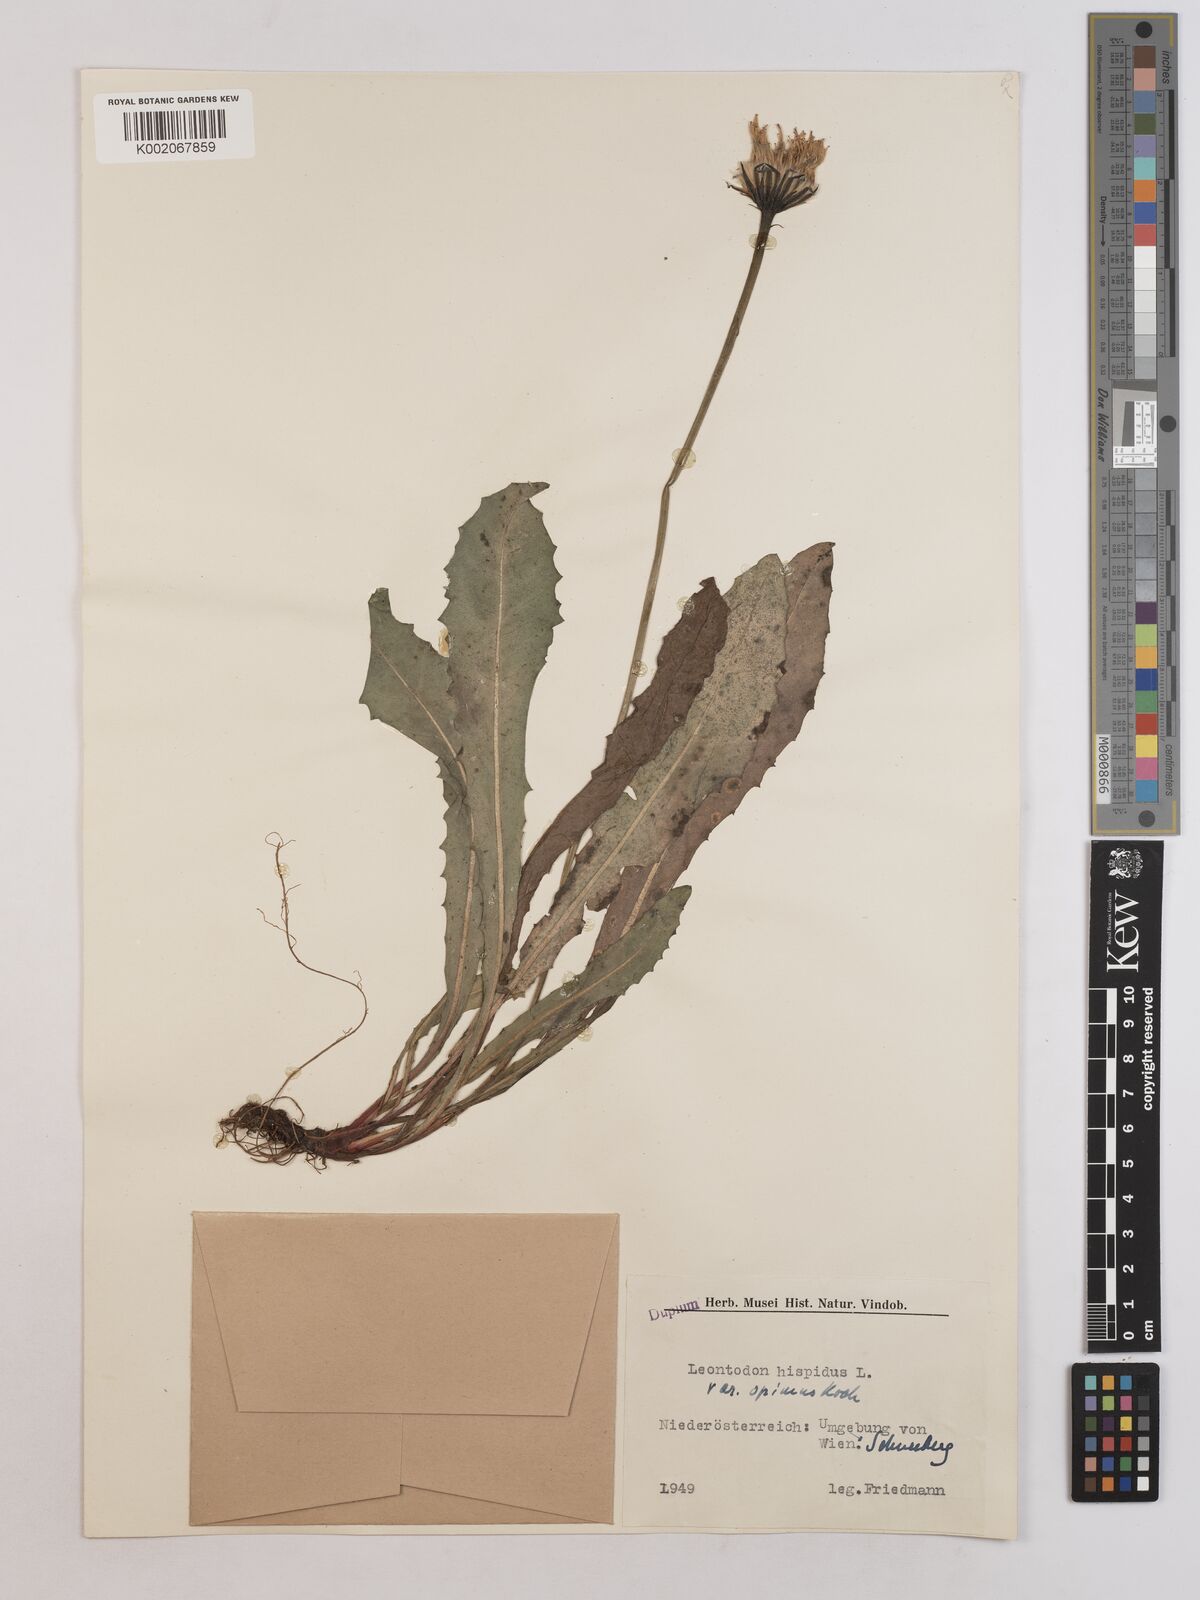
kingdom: Plantae
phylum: Tracheophyta
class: Magnoliopsida
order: Asterales
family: Asteraceae
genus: Leontodon
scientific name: Leontodon hispidus
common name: Rough hawkbit
